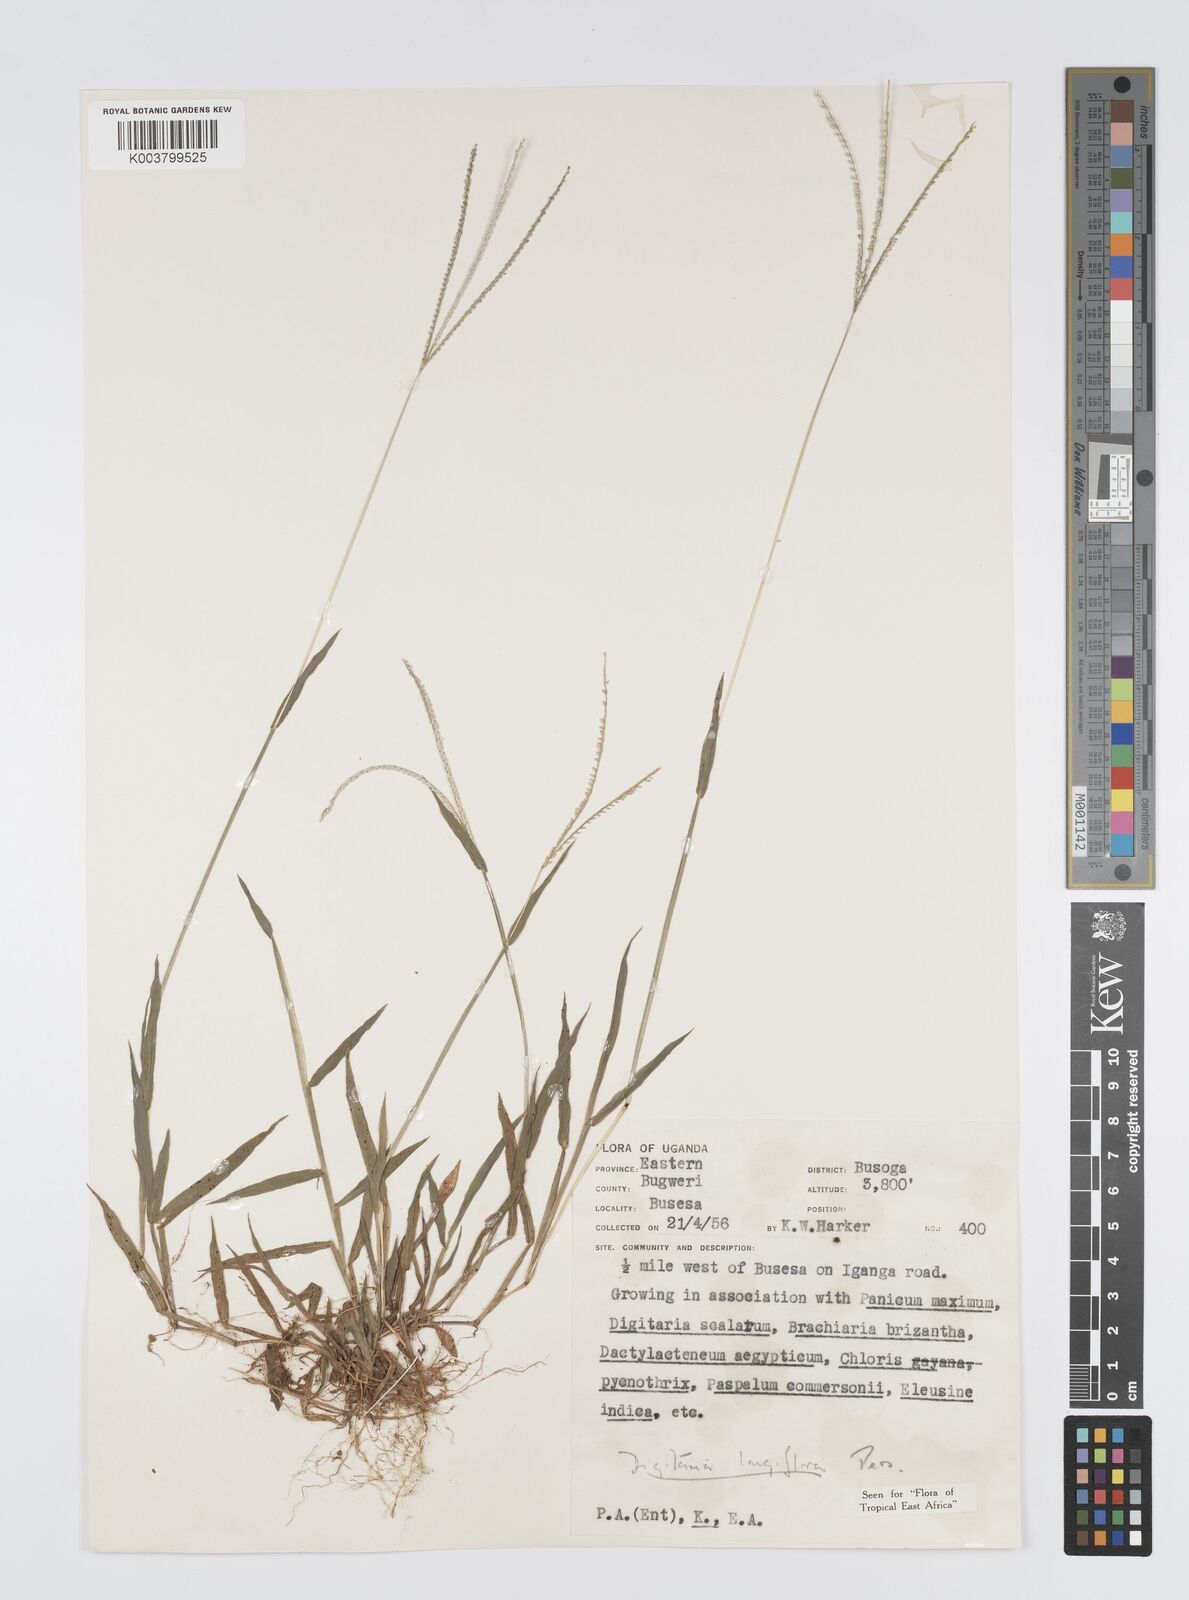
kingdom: Plantae
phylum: Tracheophyta
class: Liliopsida
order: Poales
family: Poaceae
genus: Digitaria
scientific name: Digitaria longiflora
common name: Wire crabgrass
